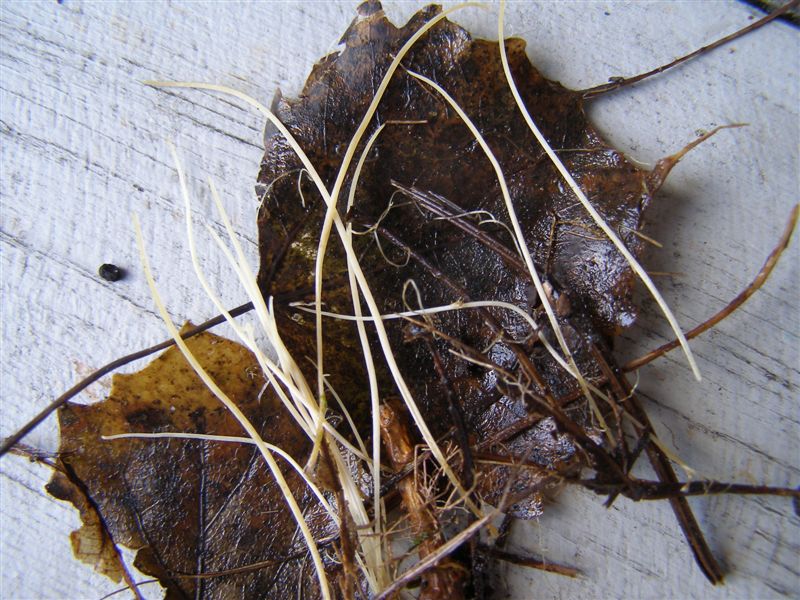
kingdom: Fungi
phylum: Basidiomycota
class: Agaricomycetes
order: Agaricales
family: Typhulaceae
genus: Typhula
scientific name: Typhula juncea
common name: trådagtig rørkølle
